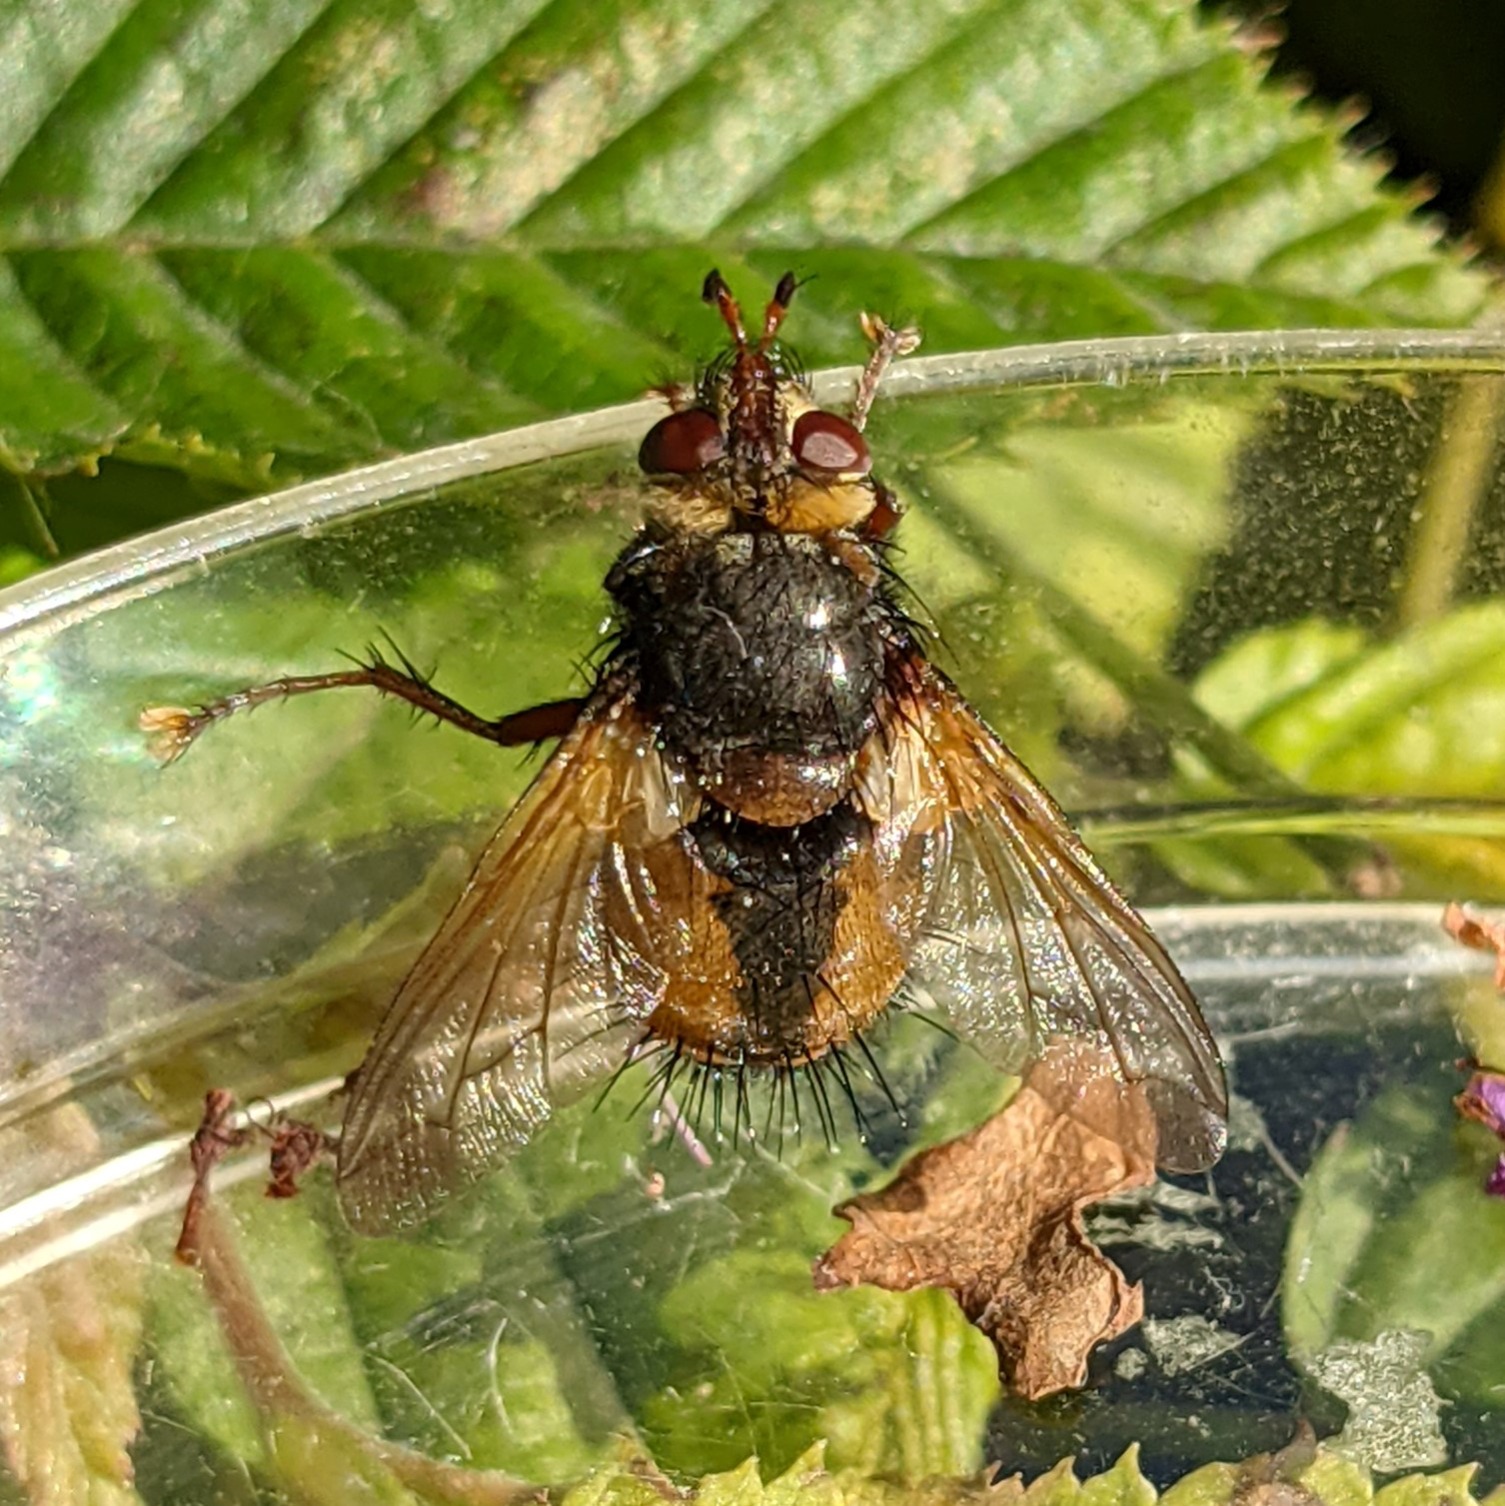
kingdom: Animalia
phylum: Arthropoda
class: Insecta
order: Diptera
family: Tachinidae
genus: Tachina
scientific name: Tachina fera
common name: Mellemfluen oskar
